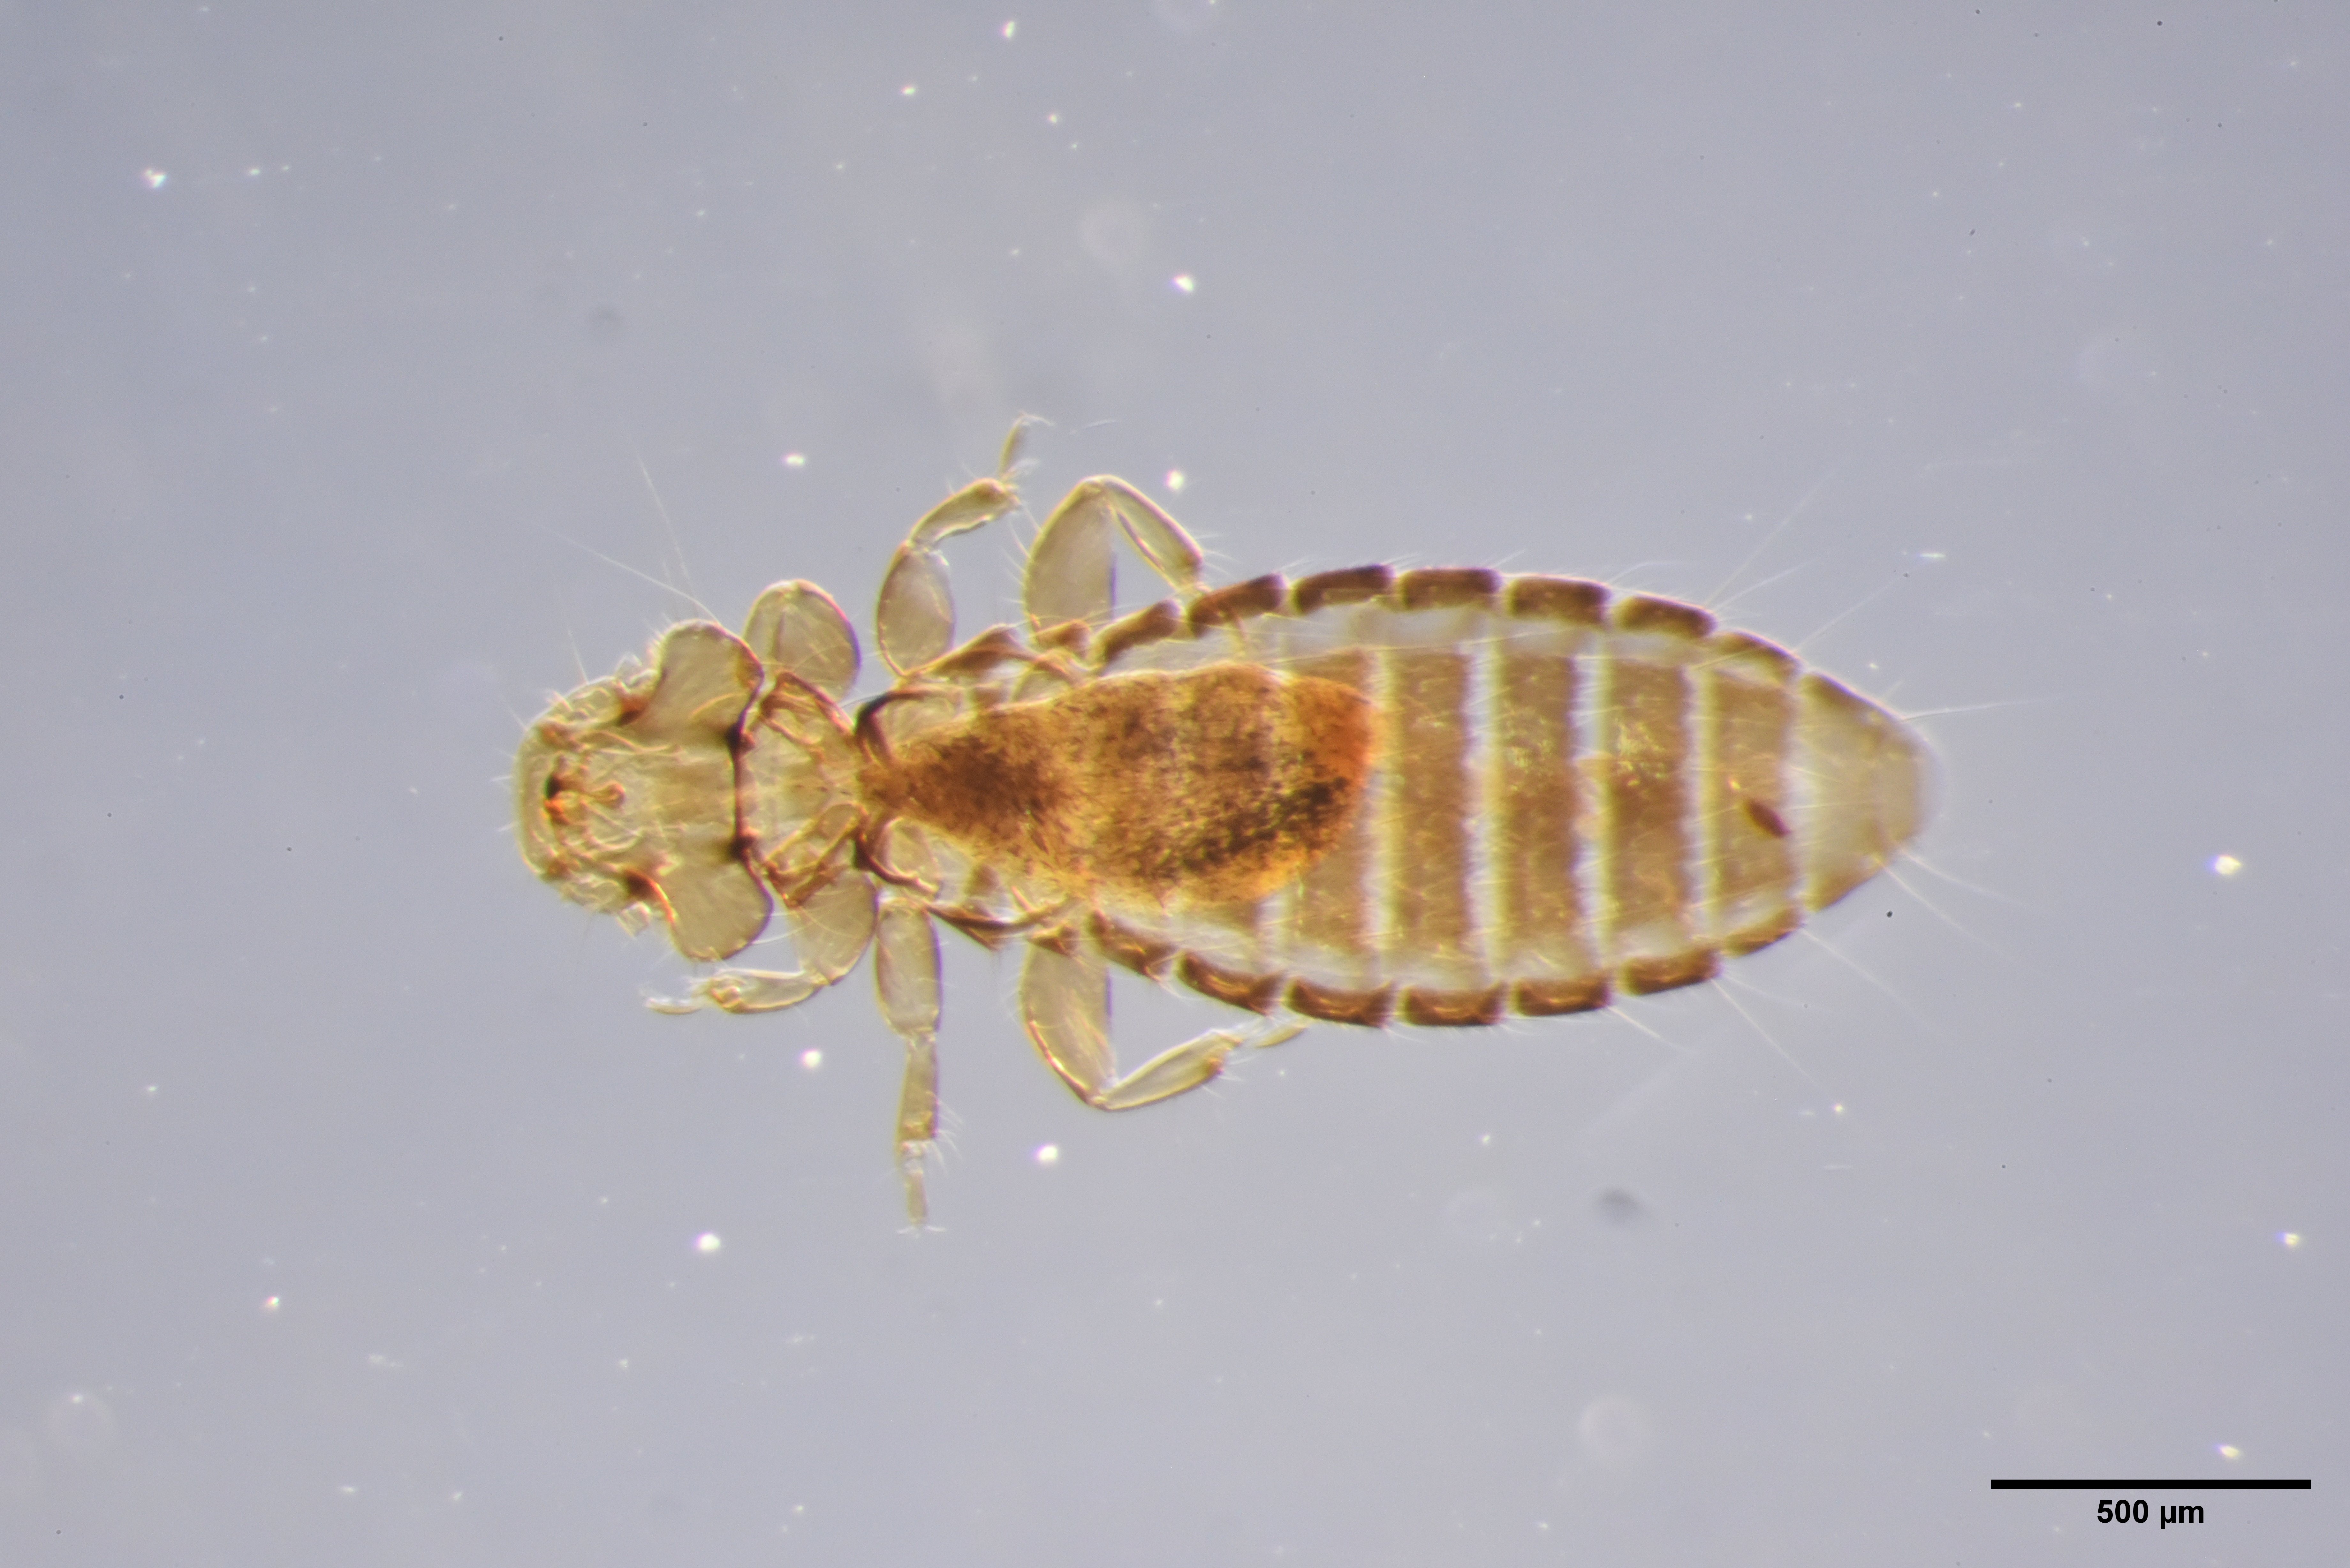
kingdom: Animalia
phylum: Arthropoda
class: Insecta
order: Psocodea
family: Ancistronidae
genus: Actornithophilus
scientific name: Actornithophilus paludosus
